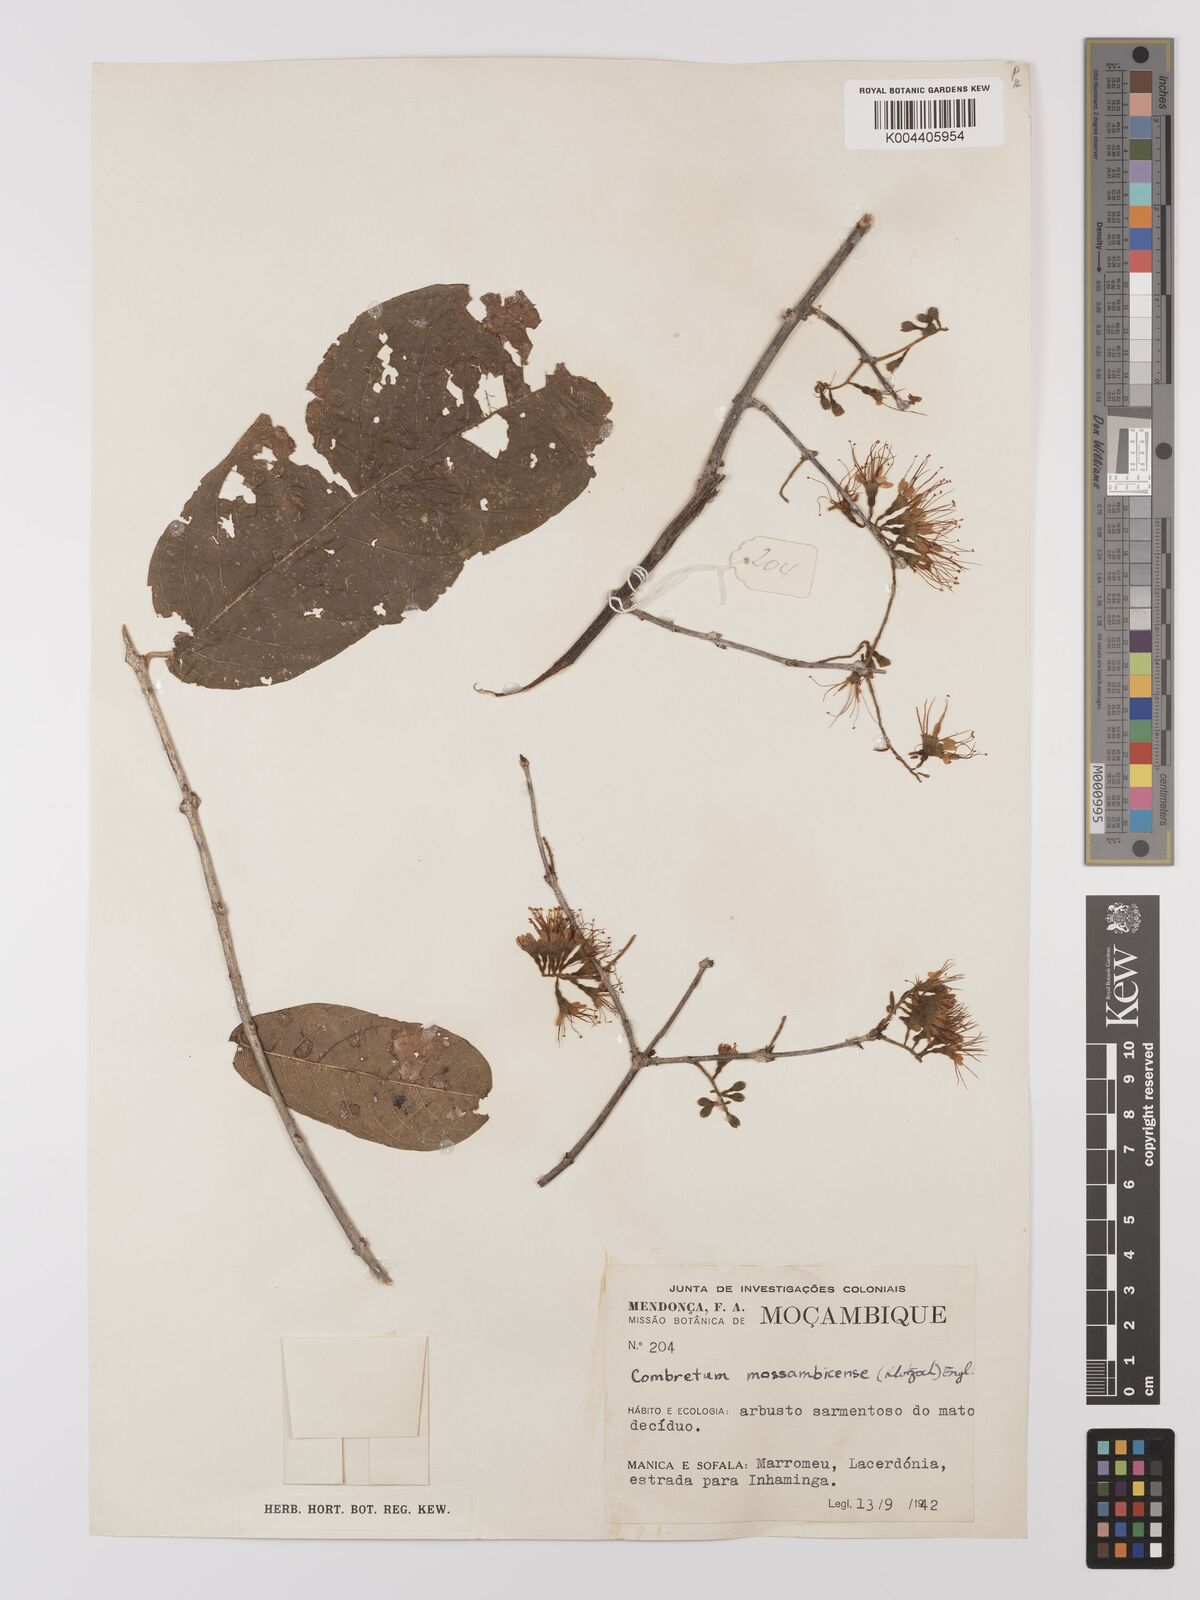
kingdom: Plantae
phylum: Tracheophyta
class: Magnoliopsida
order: Myrtales
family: Combretaceae
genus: Combretum
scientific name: Combretum mossambicense
